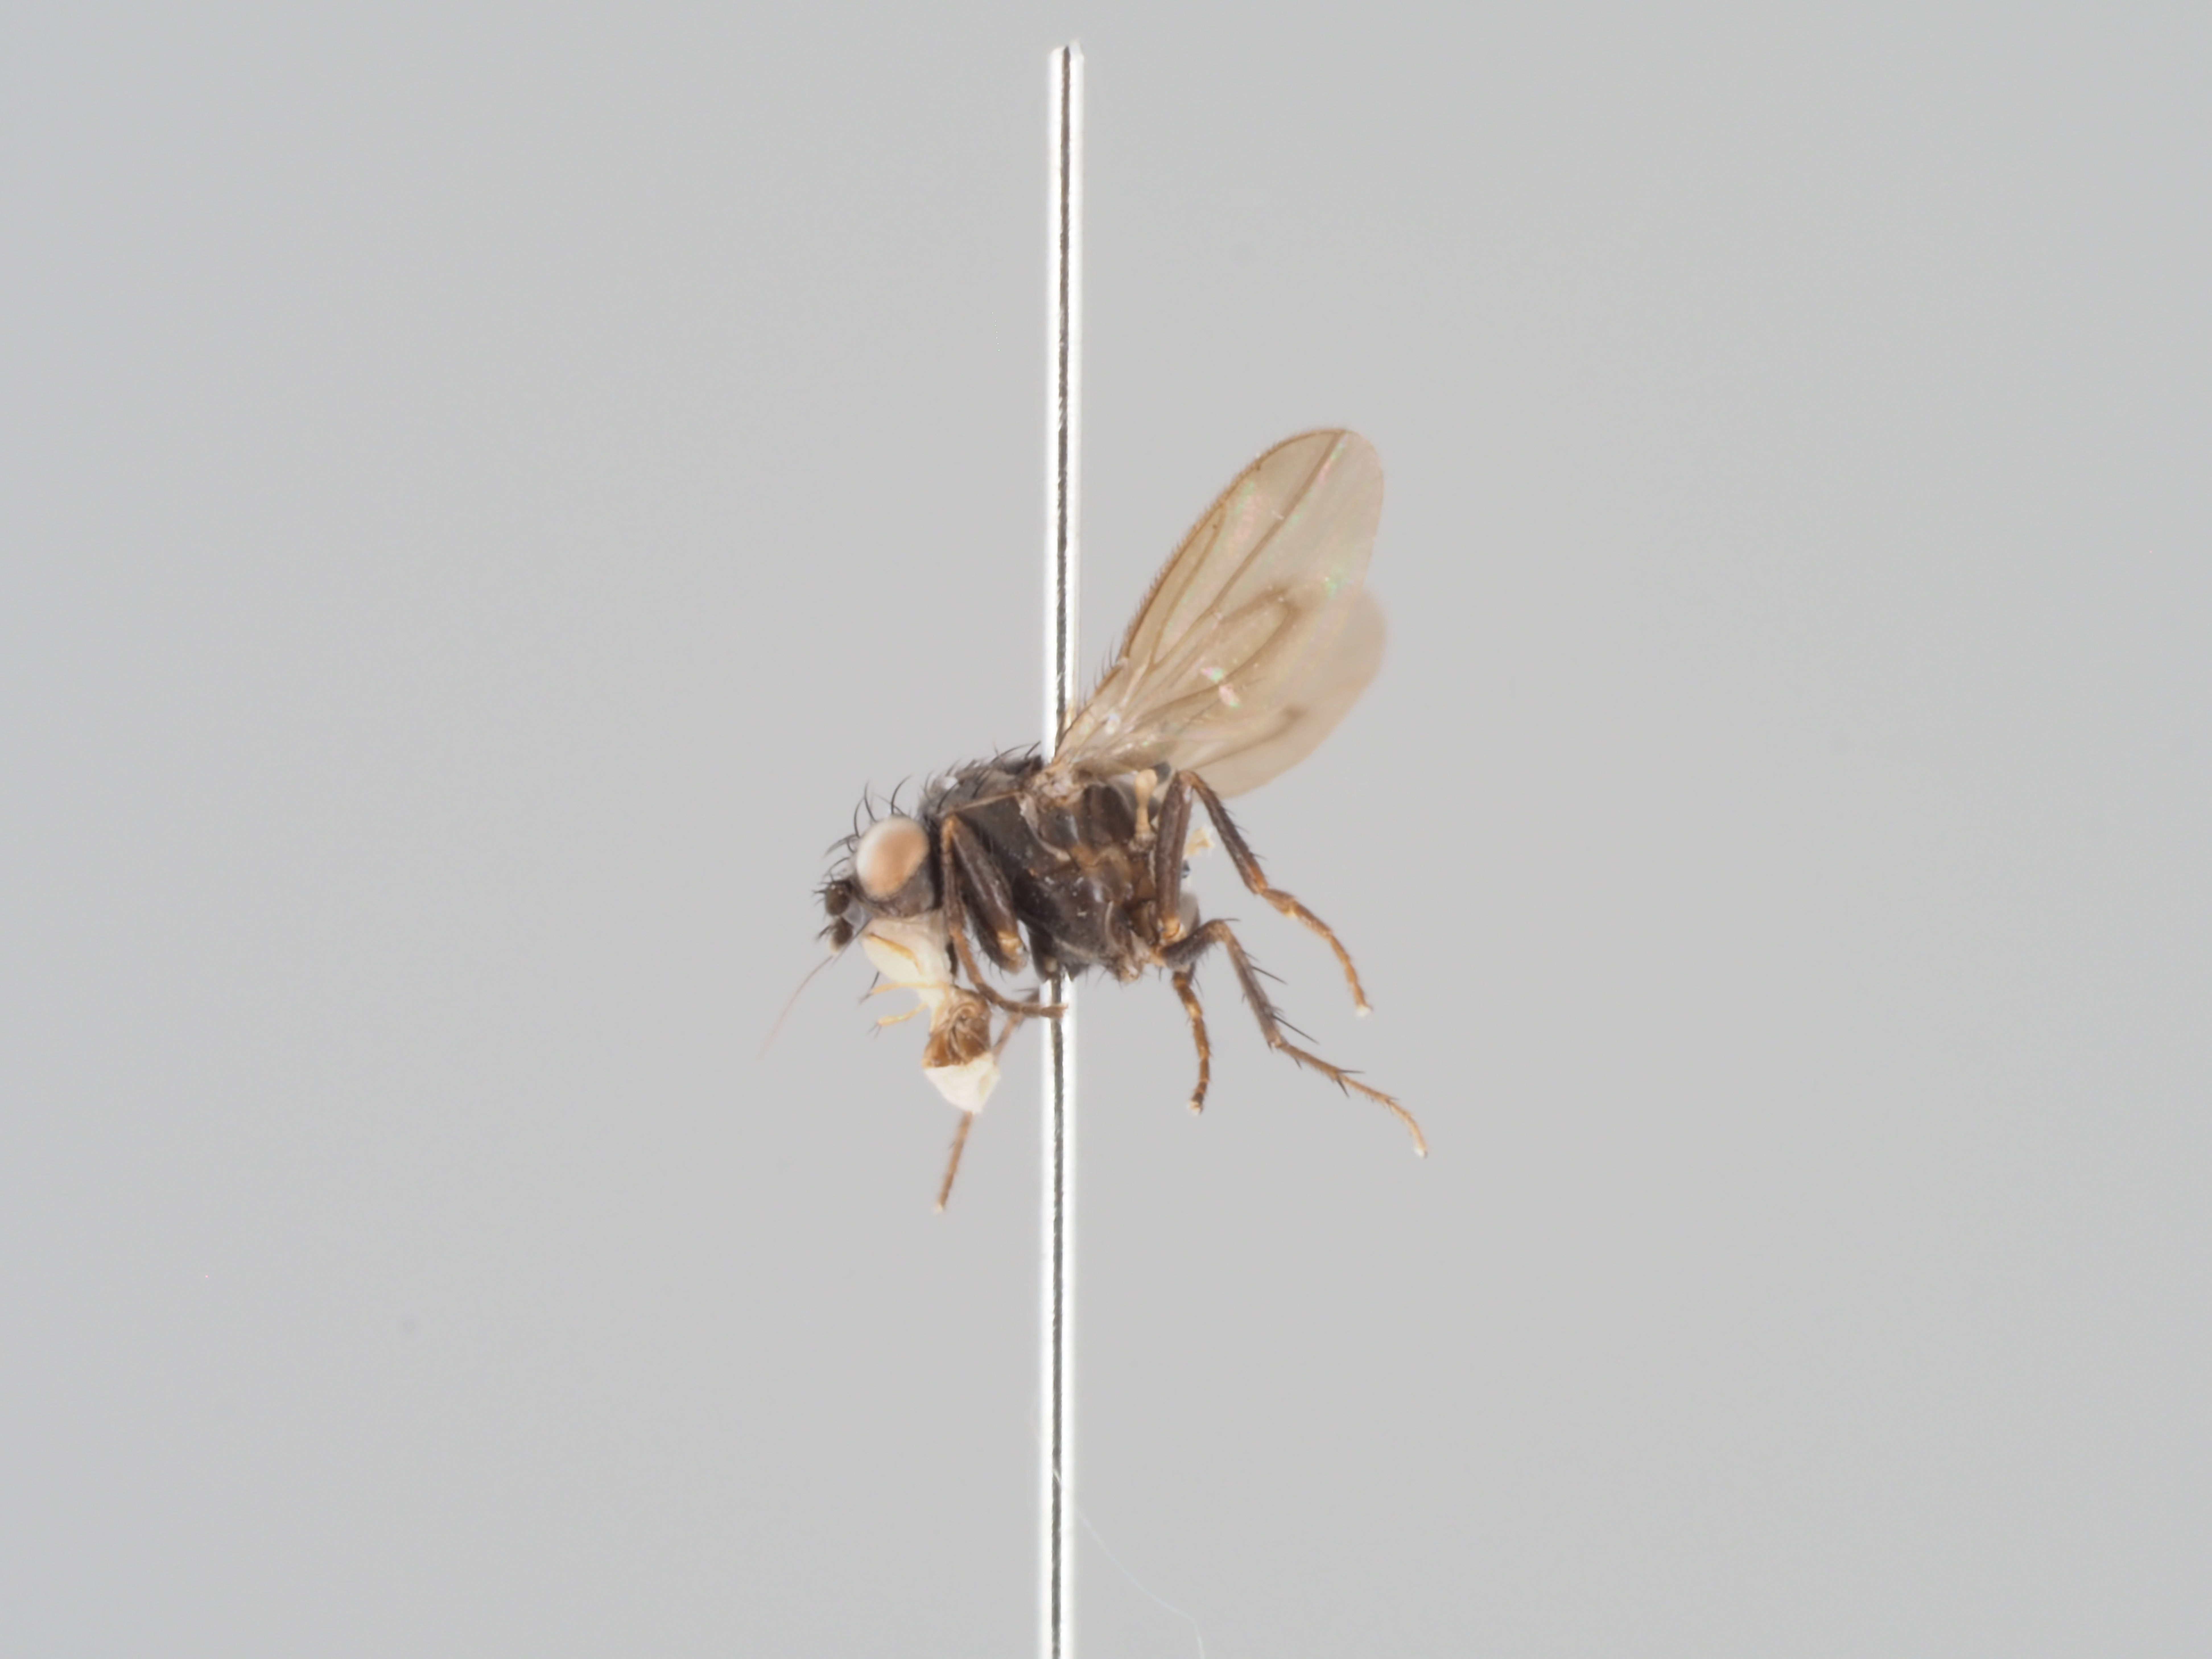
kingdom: Animalia
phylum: Arthropoda
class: Insecta
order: Diptera
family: Sphaeroceridae
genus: Rachispoda
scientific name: Rachispoda anceps
